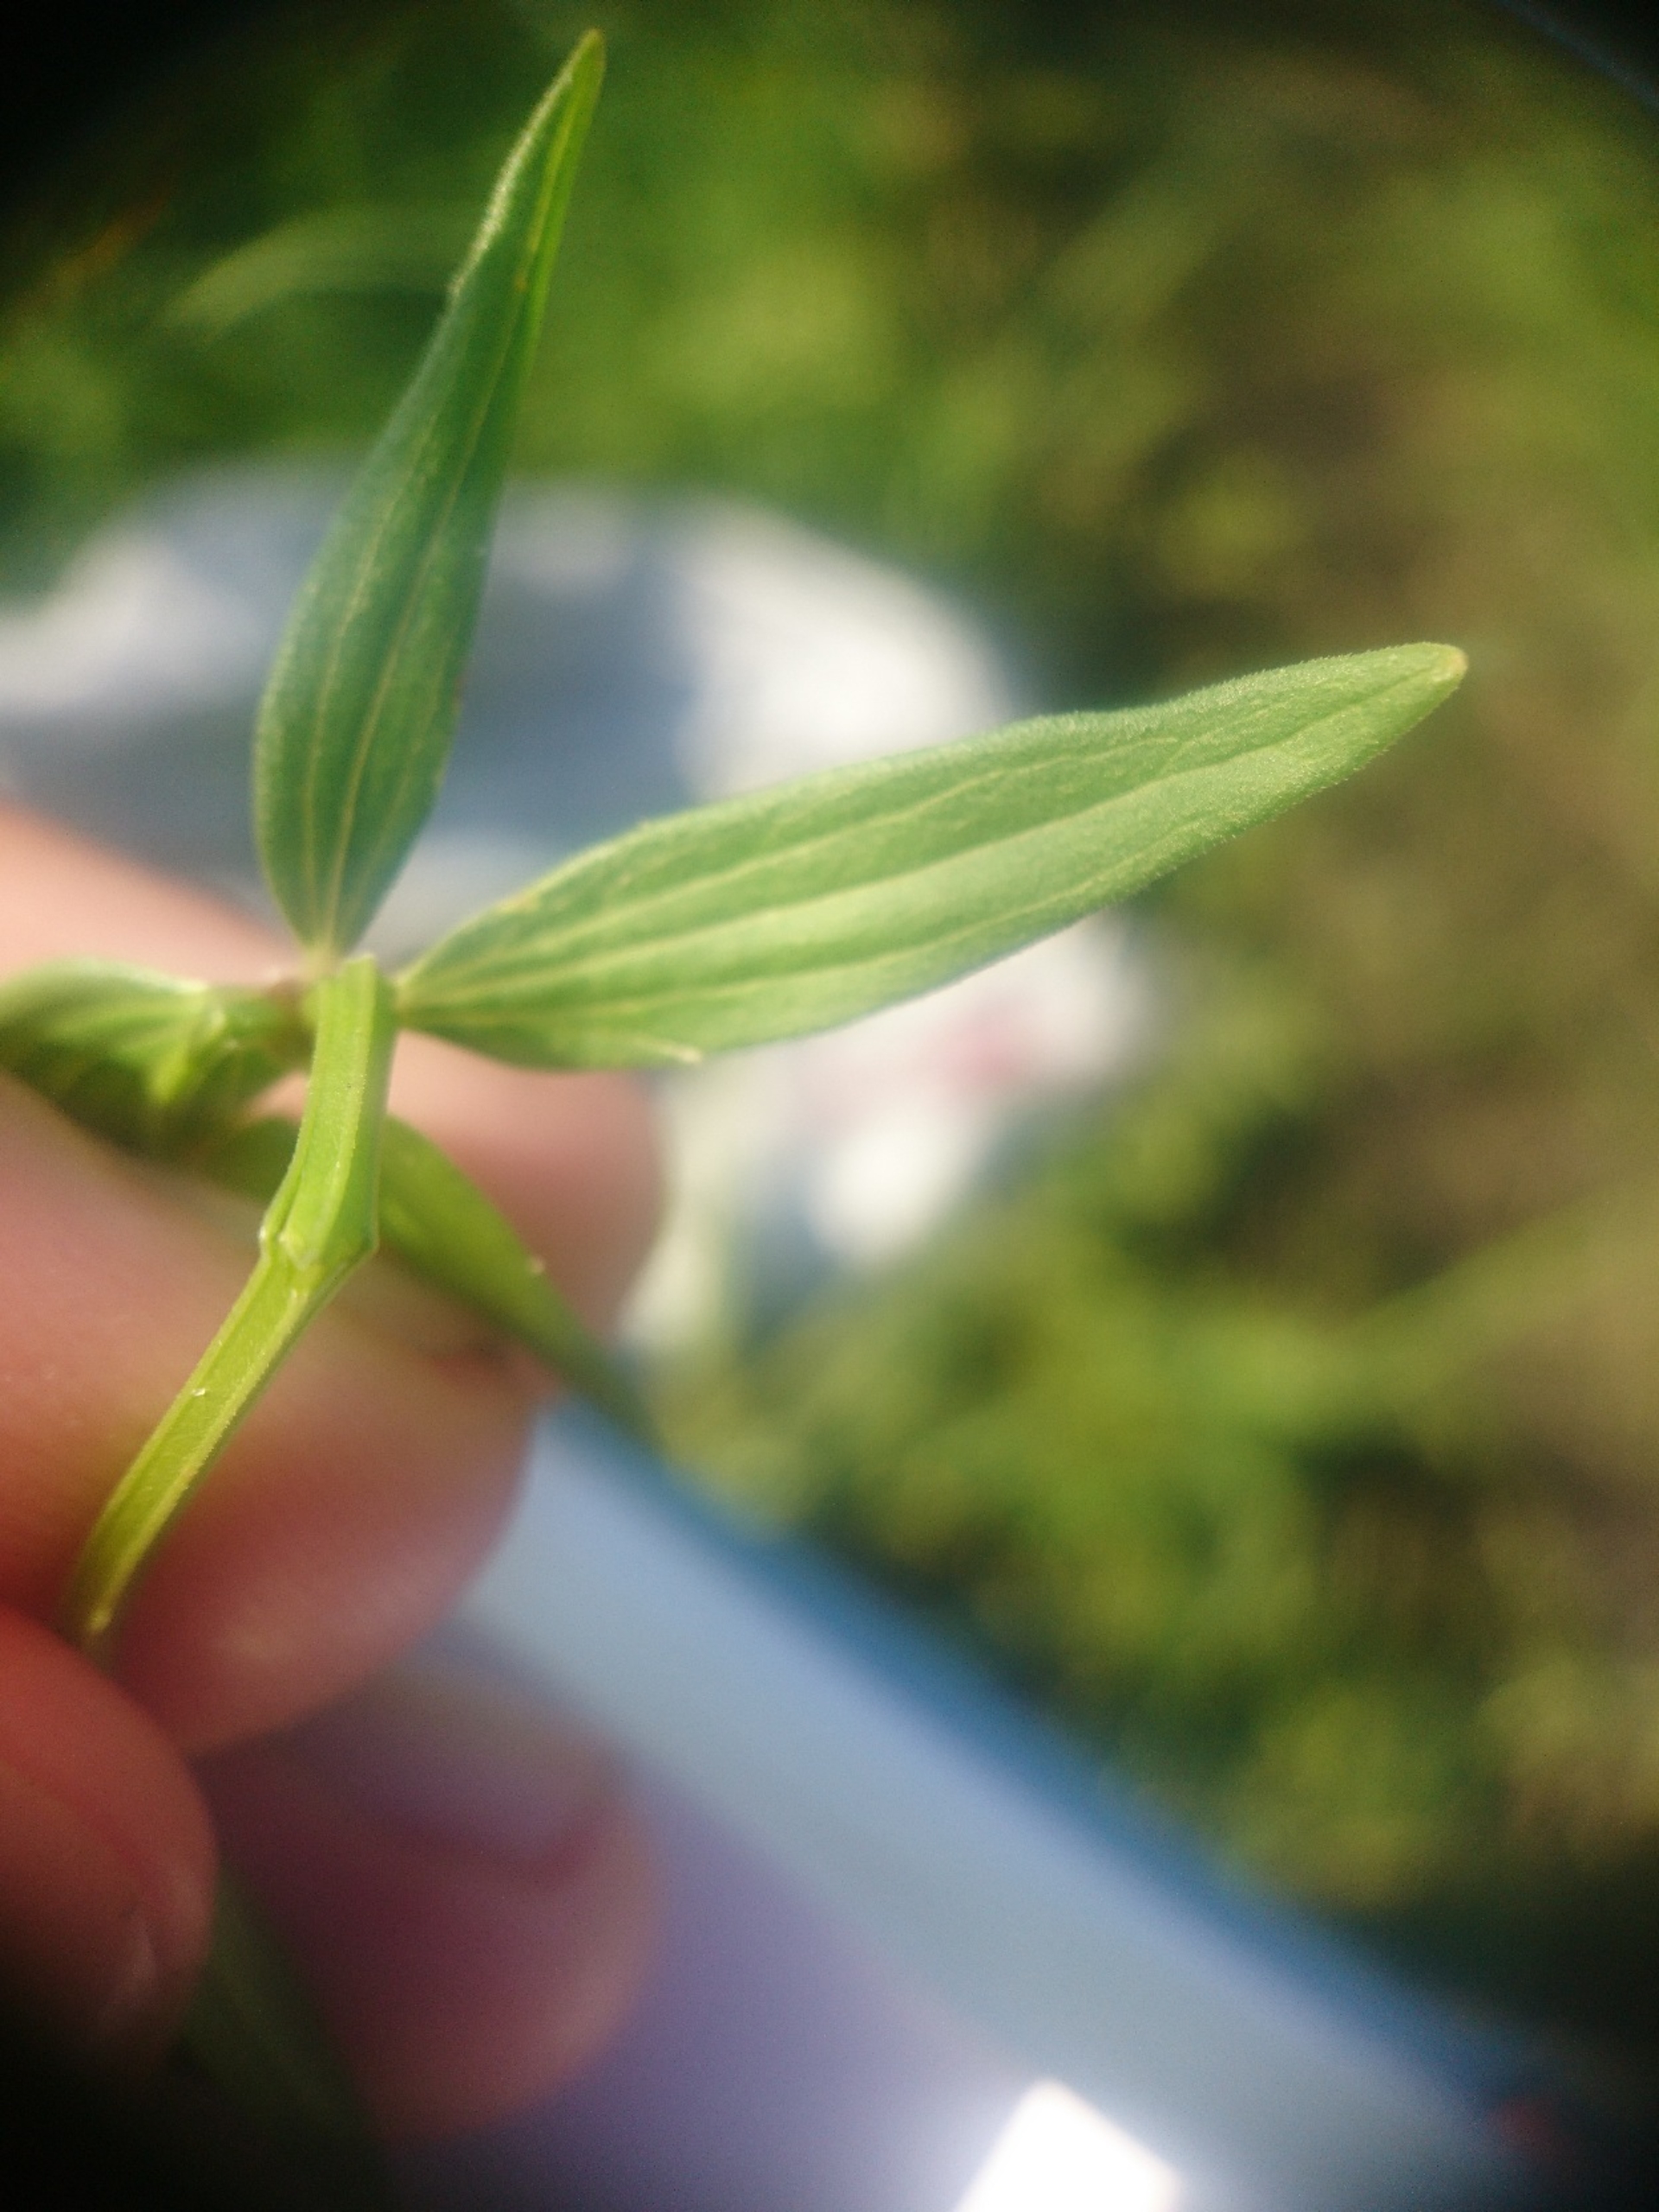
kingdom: Plantae
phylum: Tracheophyta
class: Magnoliopsida
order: Gentianales
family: Rubiaceae
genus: Galium
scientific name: Galium boreale
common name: Trenervet snerre
